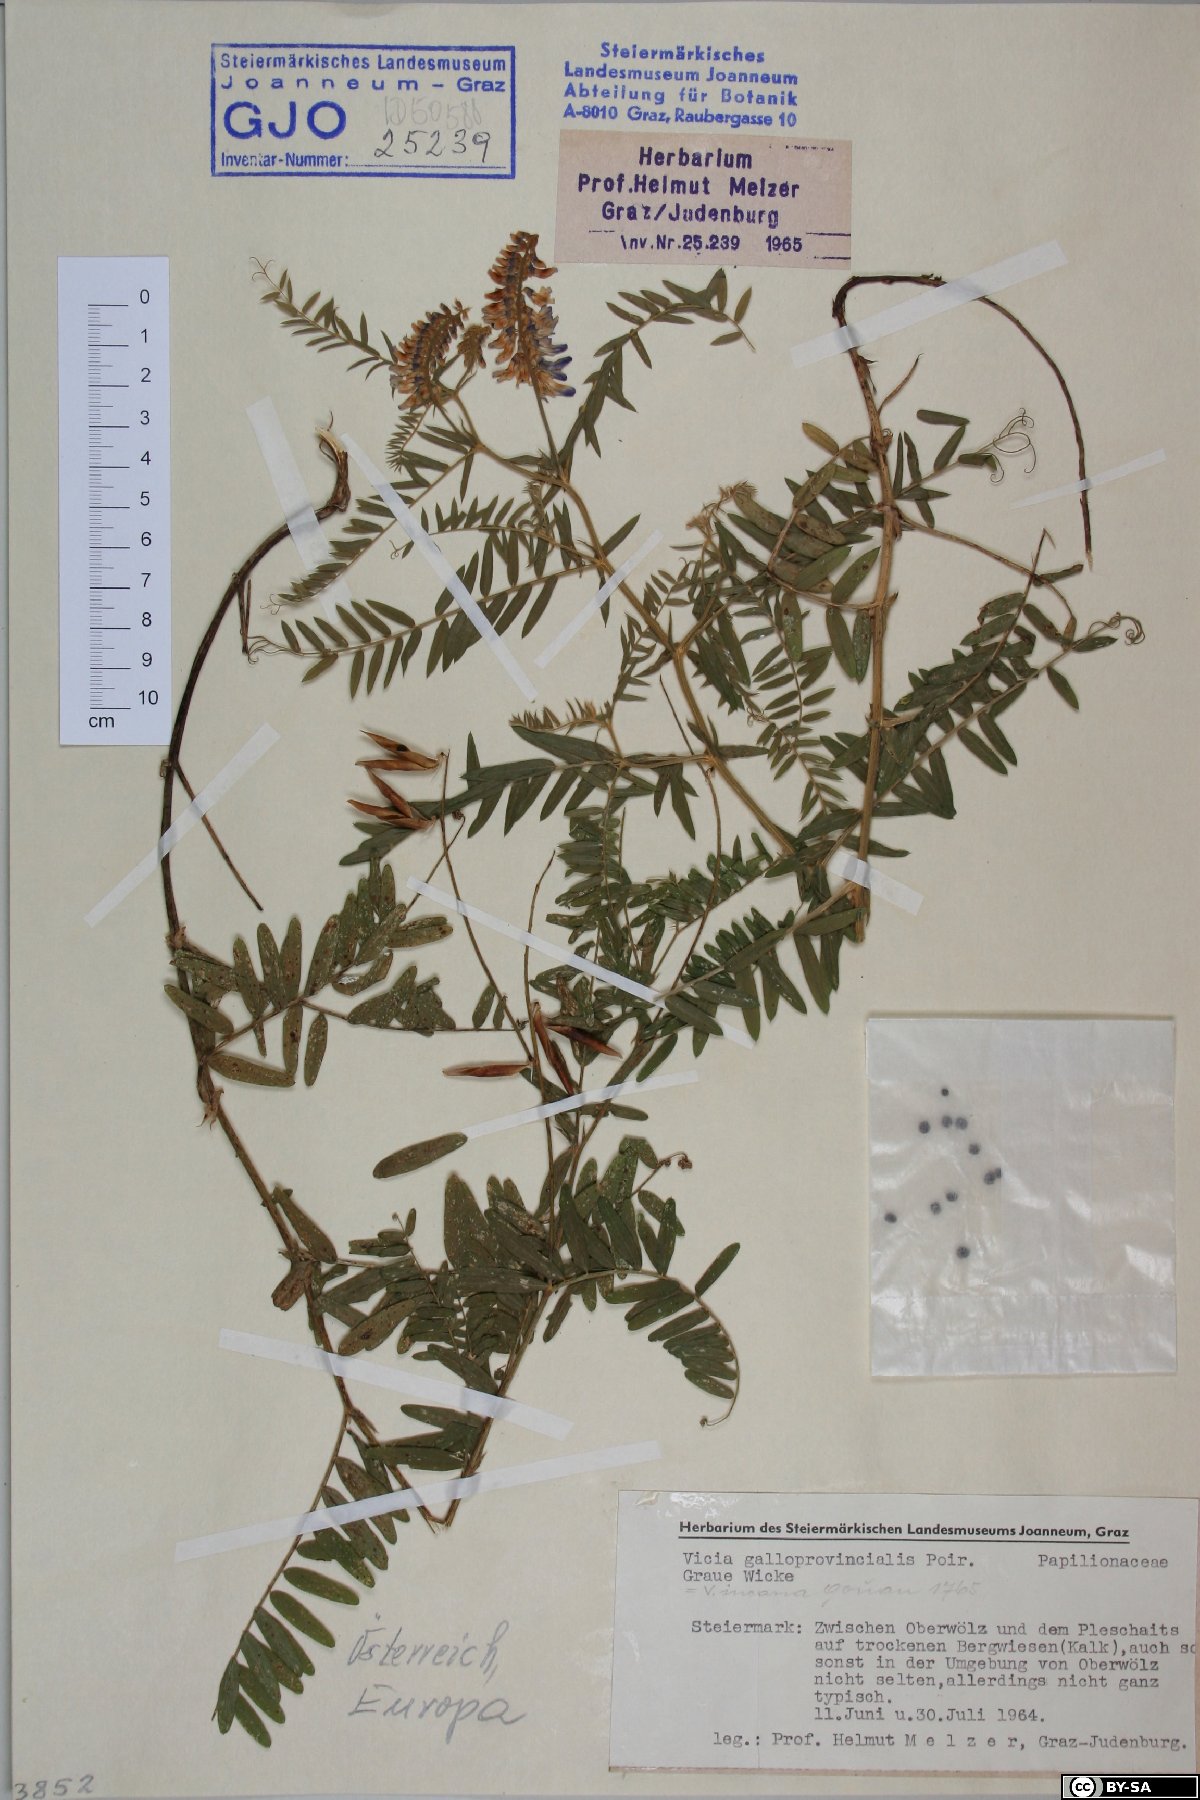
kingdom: Plantae
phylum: Tracheophyta
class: Magnoliopsida
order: Fabales
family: Fabaceae
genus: Vicia
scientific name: Vicia incana
